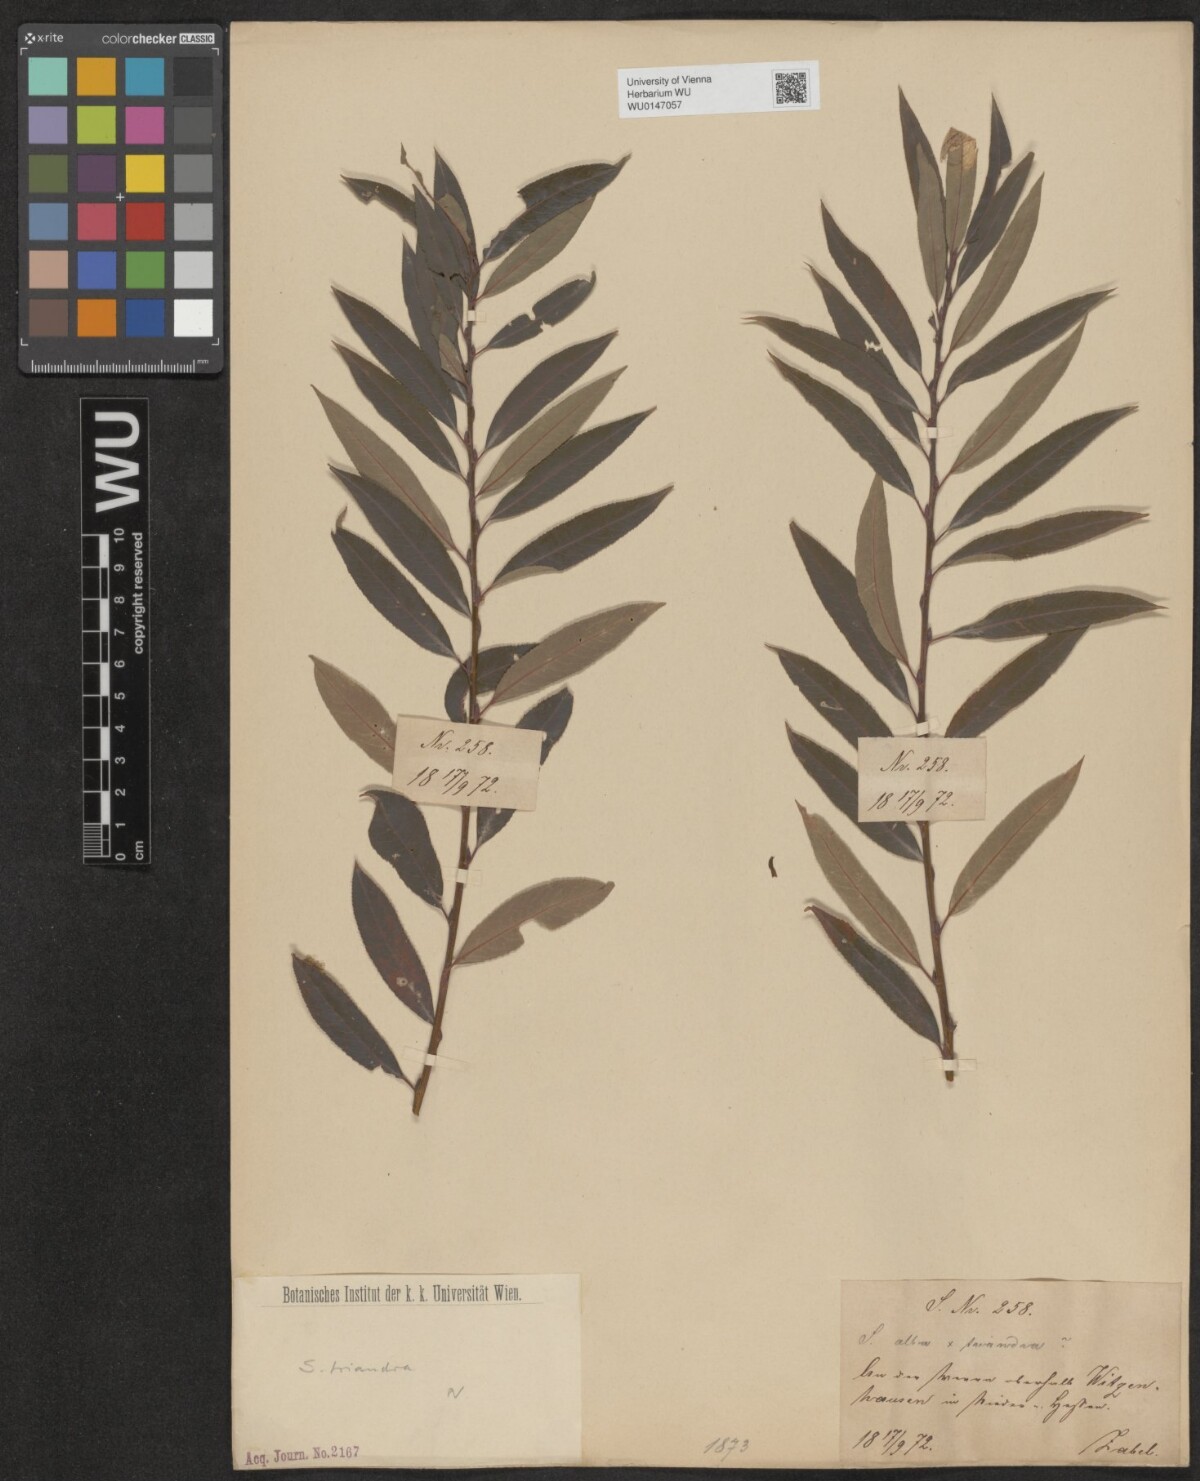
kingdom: Plantae
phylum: Tracheophyta
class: Magnoliopsida
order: Malpighiales
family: Salicaceae
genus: Salix
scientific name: Salix triandra
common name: Almond willow
